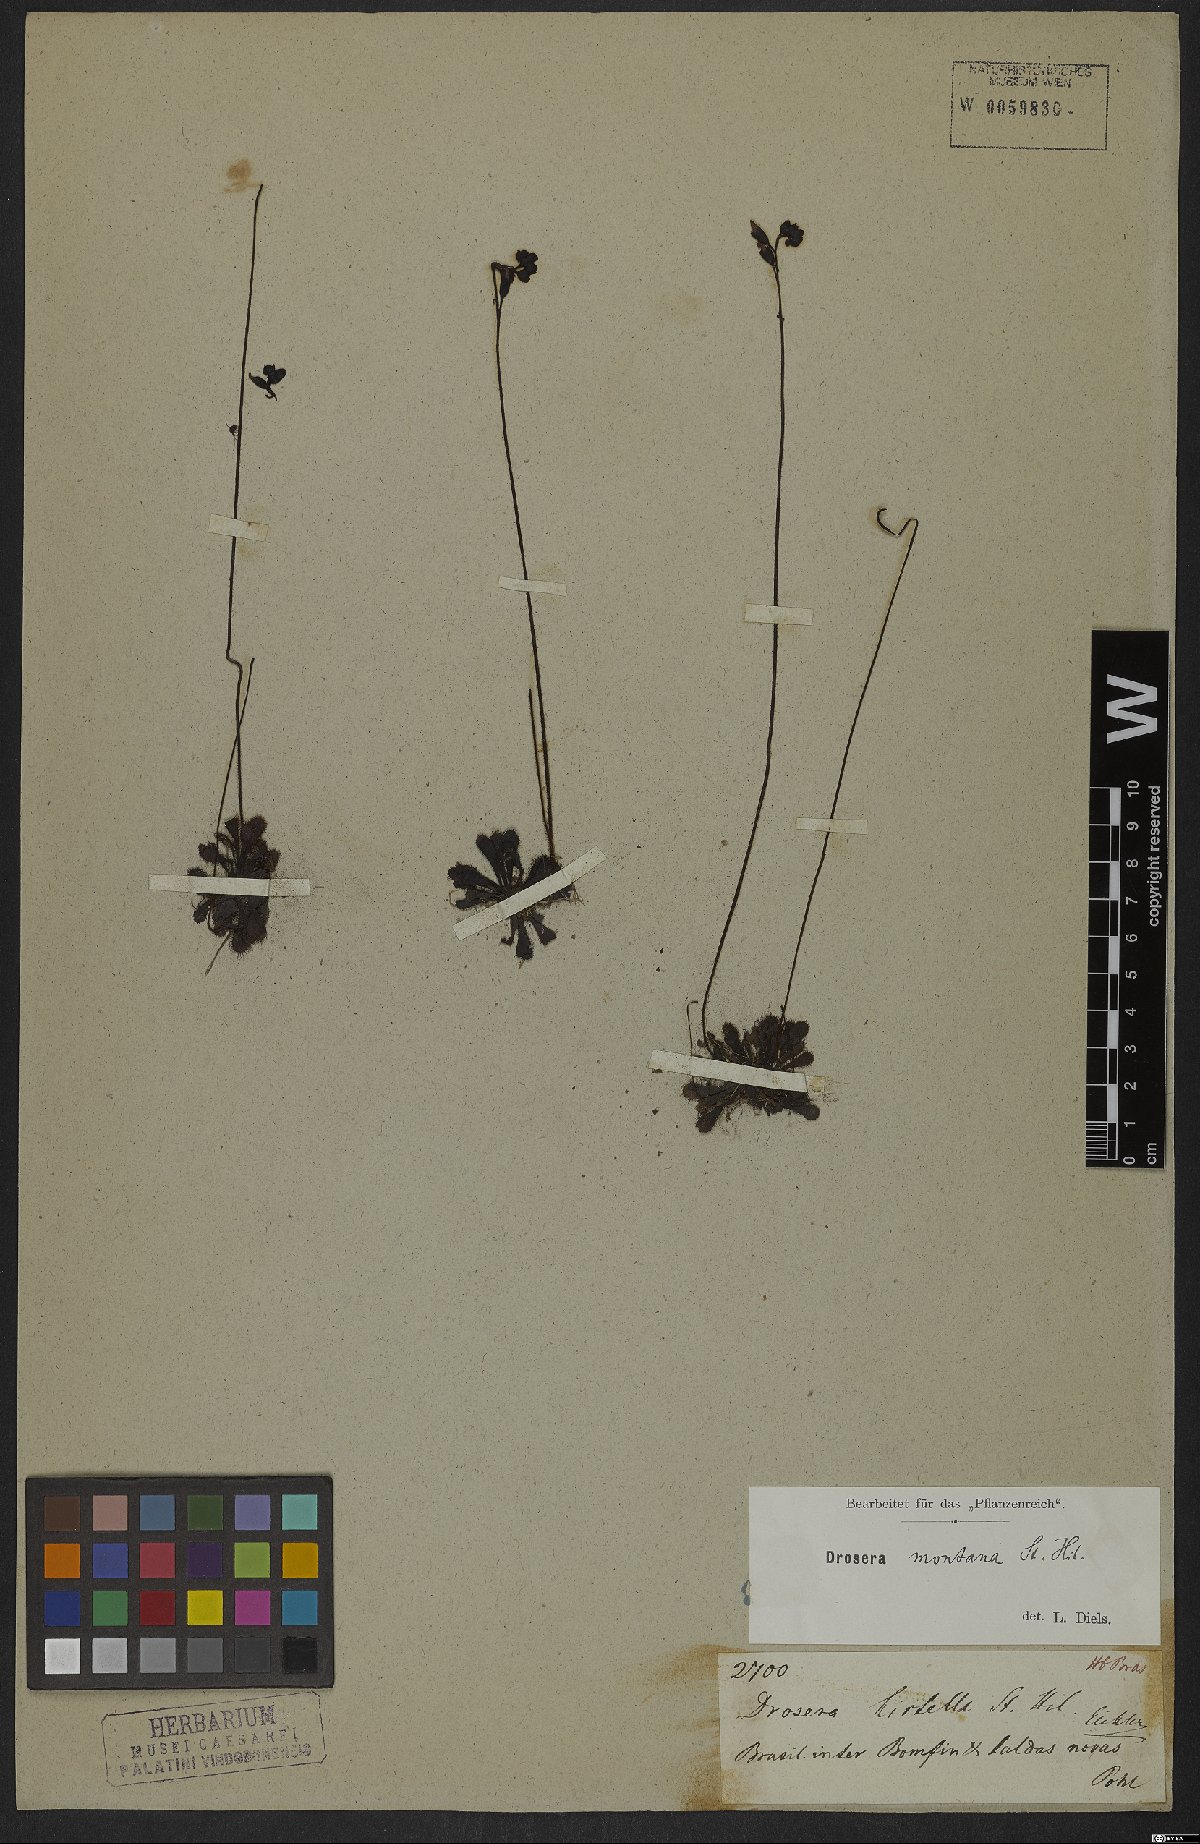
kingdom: Plantae
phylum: Tracheophyta
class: Magnoliopsida
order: Caryophyllales
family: Droseraceae
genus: Drosera
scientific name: Drosera hirtella
